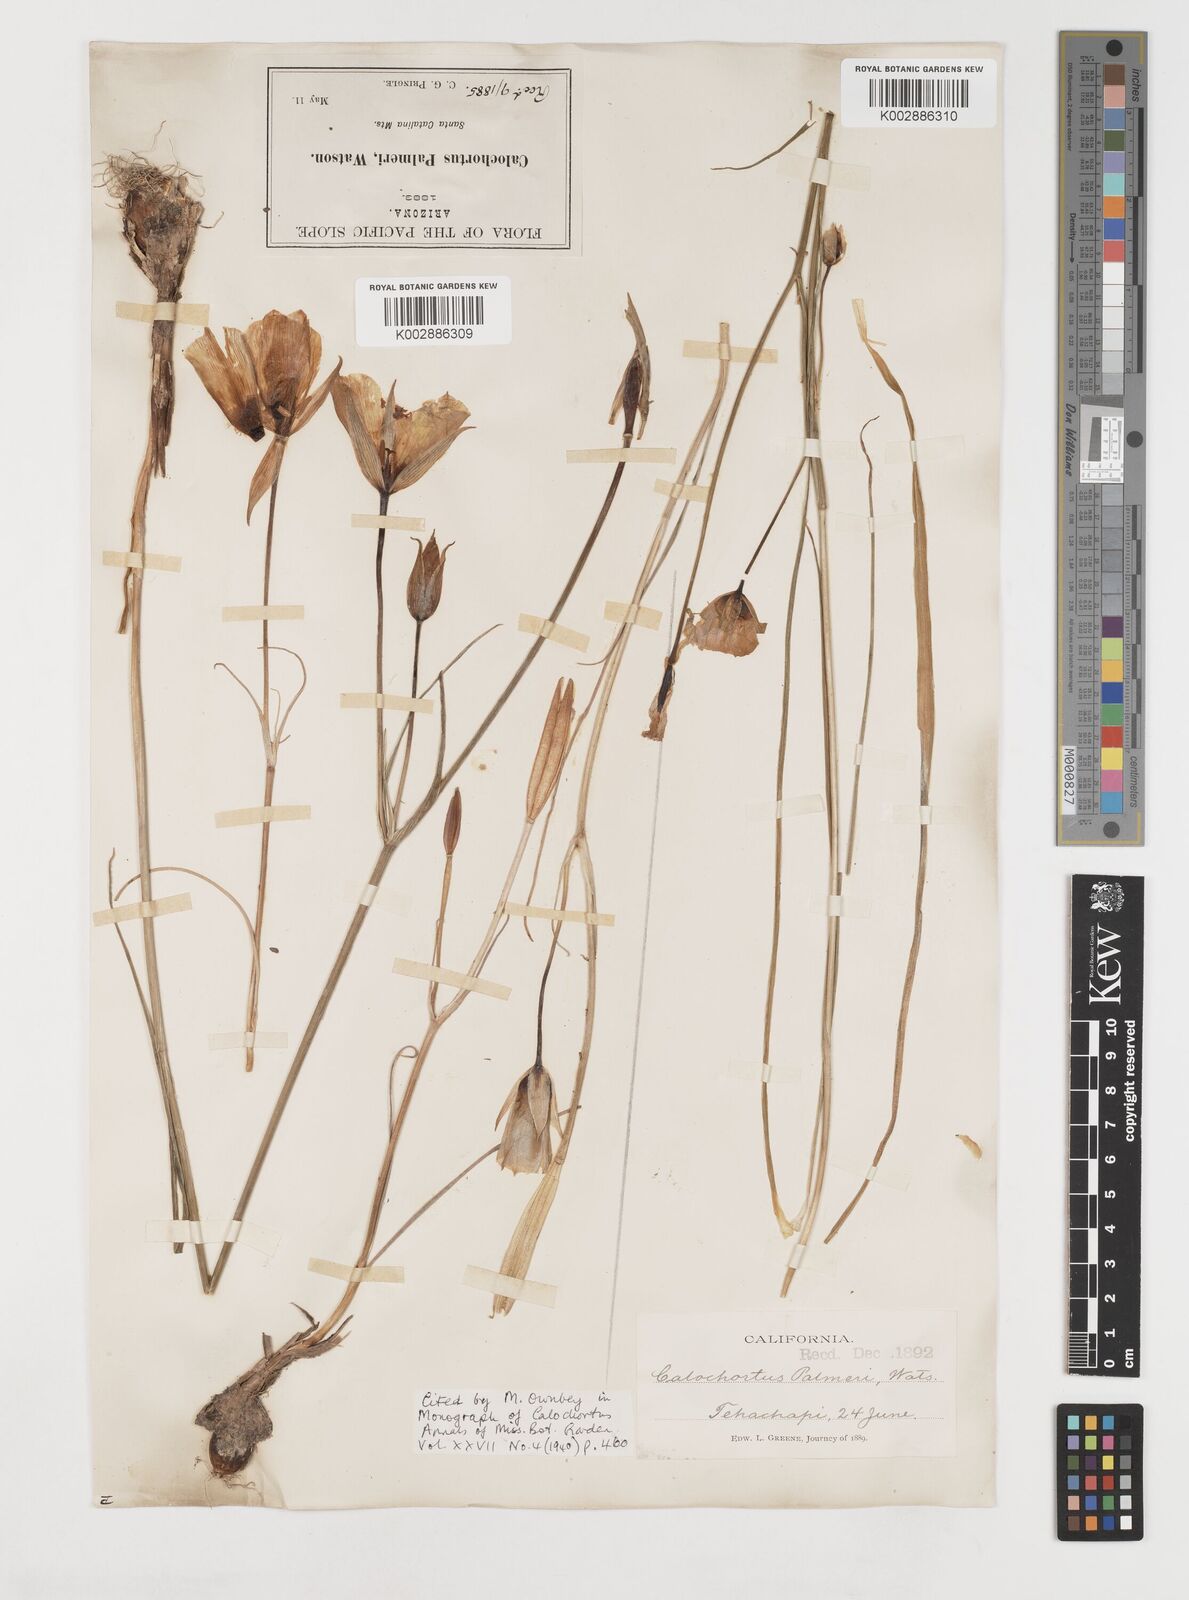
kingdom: Plantae
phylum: Tracheophyta
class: Liliopsida
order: Liliales
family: Liliaceae
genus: Calochortus
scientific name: Calochortus palmeri
